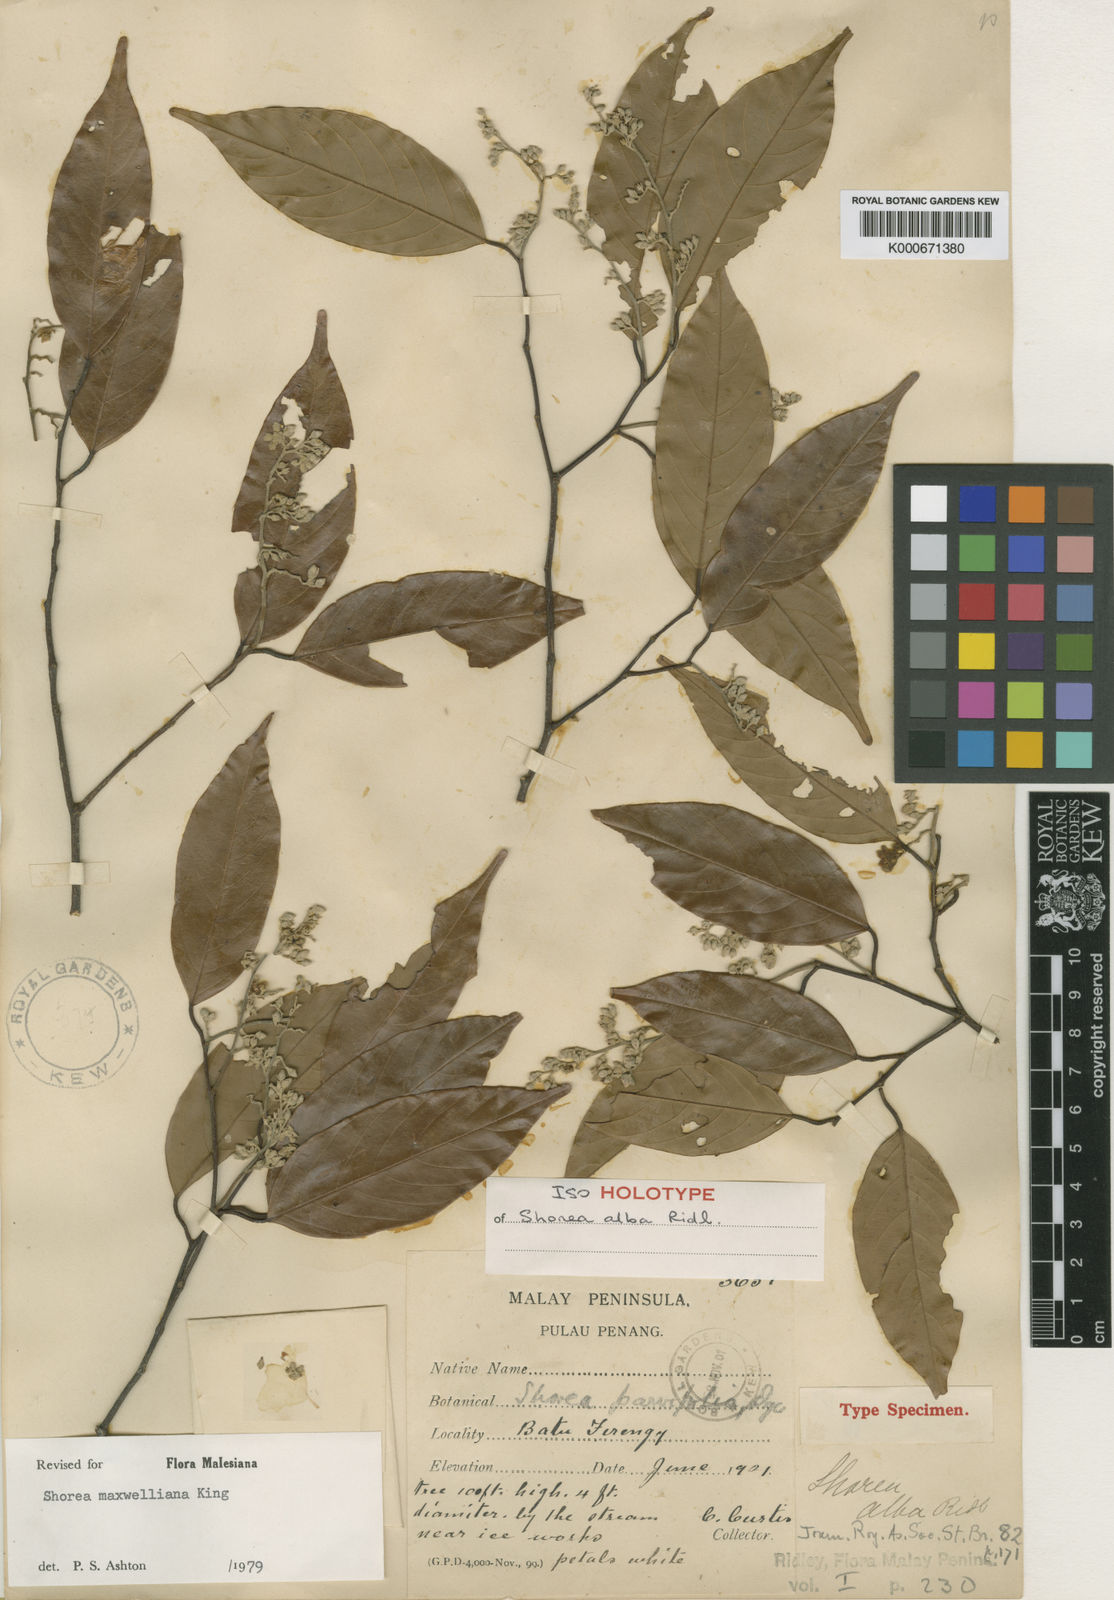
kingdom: Plantae
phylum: Tracheophyta
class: Magnoliopsida
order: Malvales
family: Dipterocarpaceae
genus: Shorea
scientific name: Shorea maxwelliana
